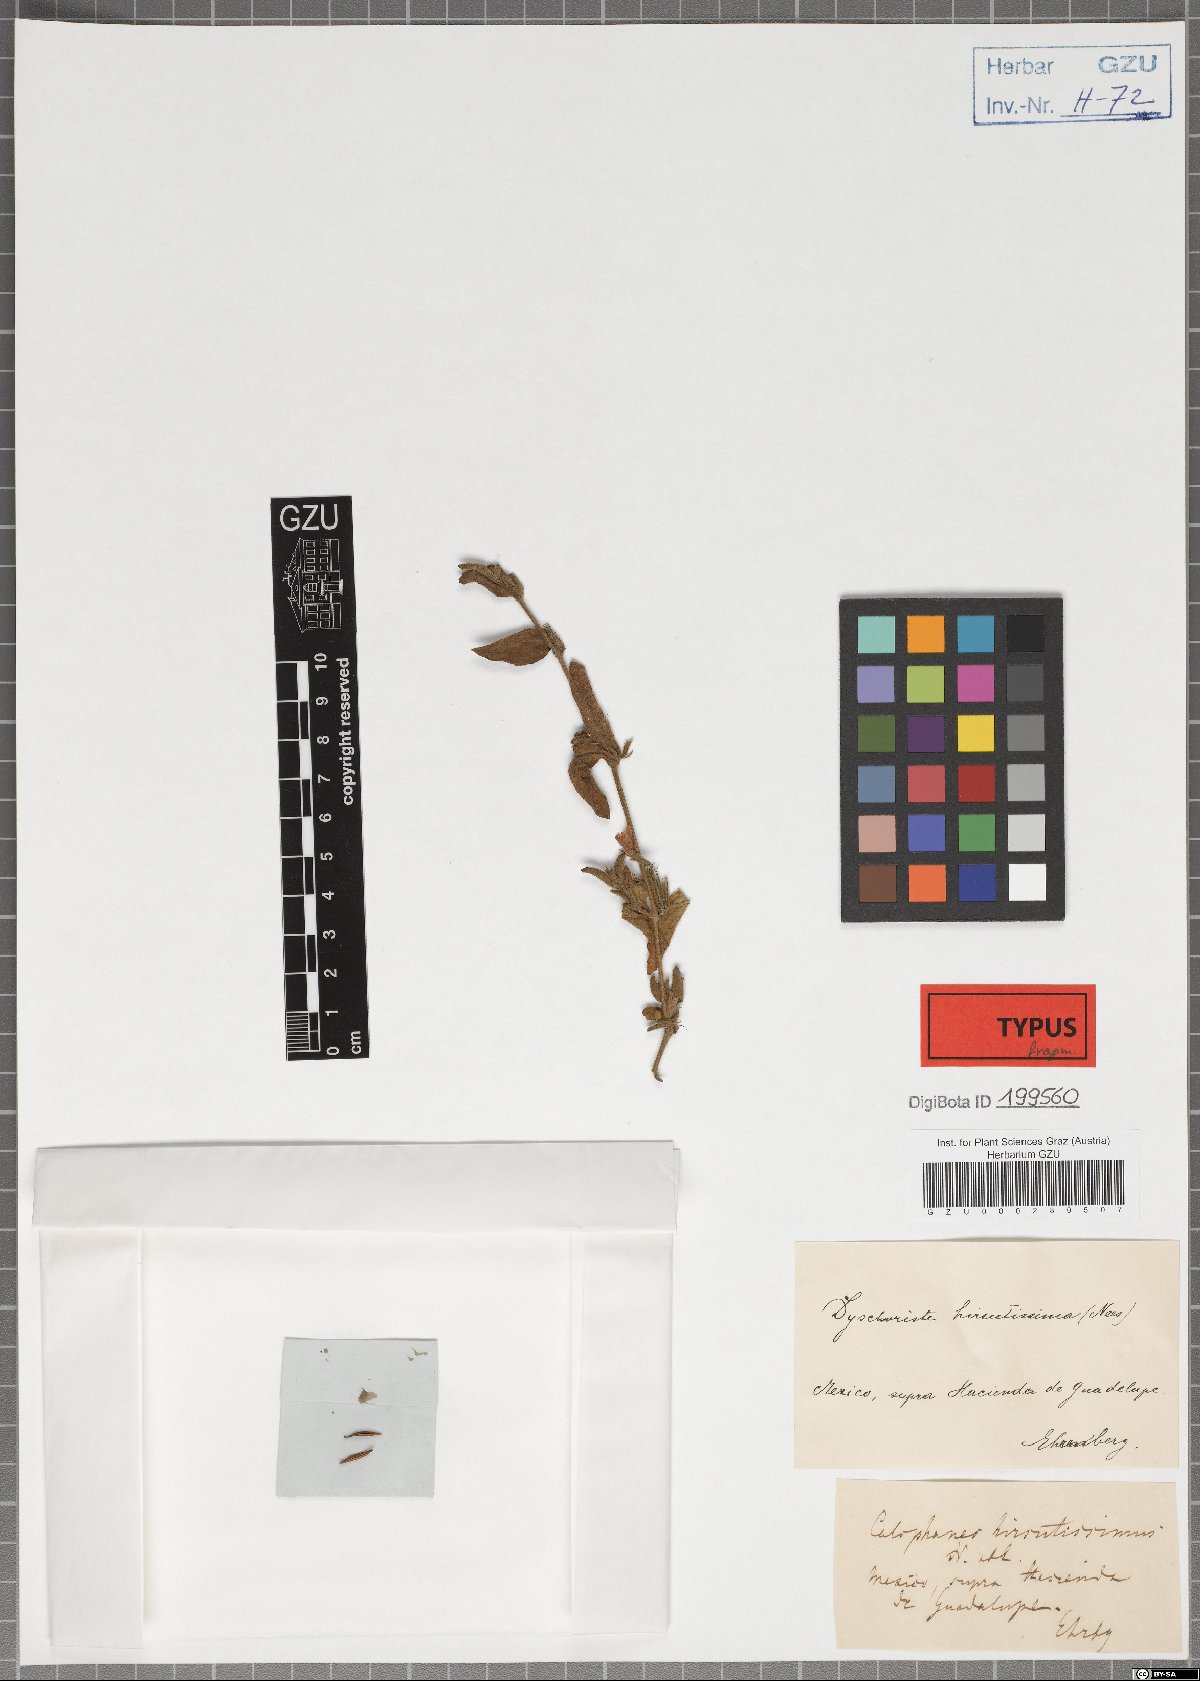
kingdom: Plantae
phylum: Tracheophyta
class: Magnoliopsida
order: Lamiales
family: Acanthaceae
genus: Dyschoriste
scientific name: Dyschoriste hirsutissima
